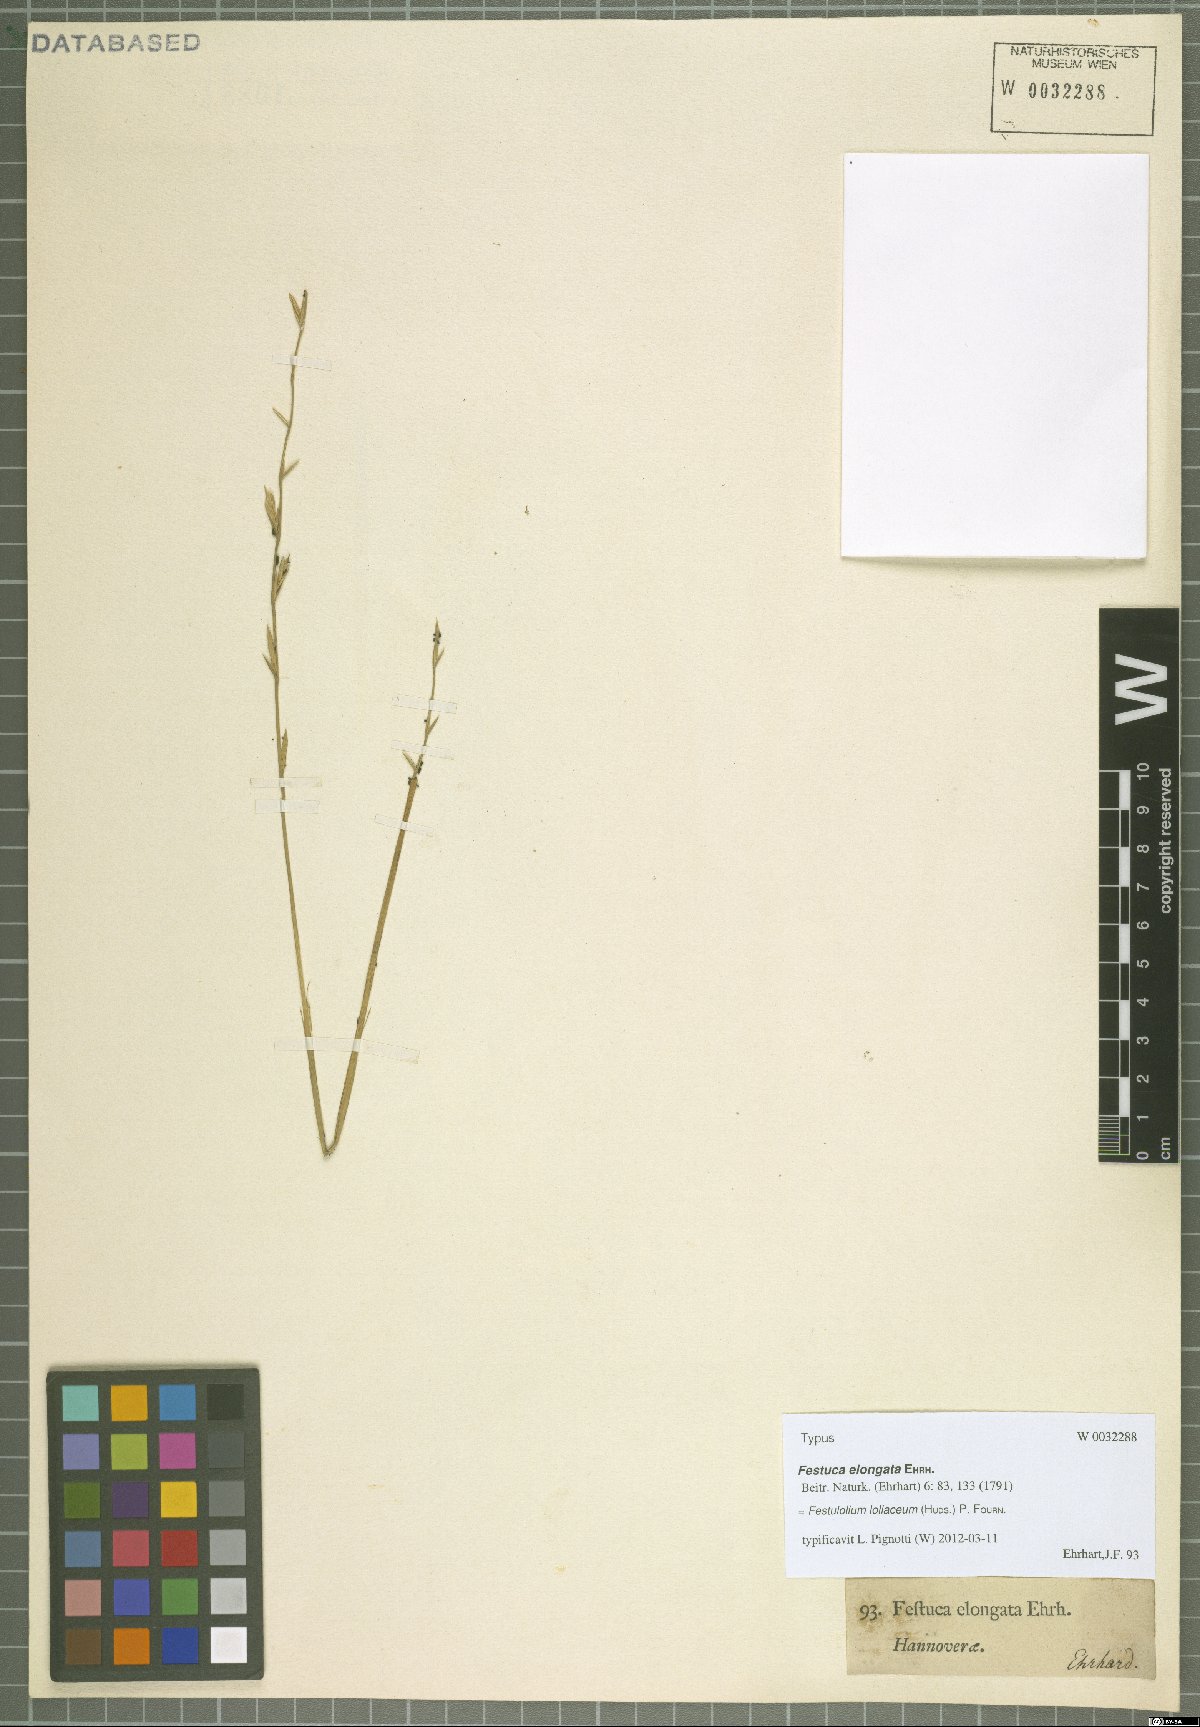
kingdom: Plantae
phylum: Tracheophyta
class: Liliopsida
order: Poales
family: Poaceae
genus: Lolium
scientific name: Lolium elongatum
